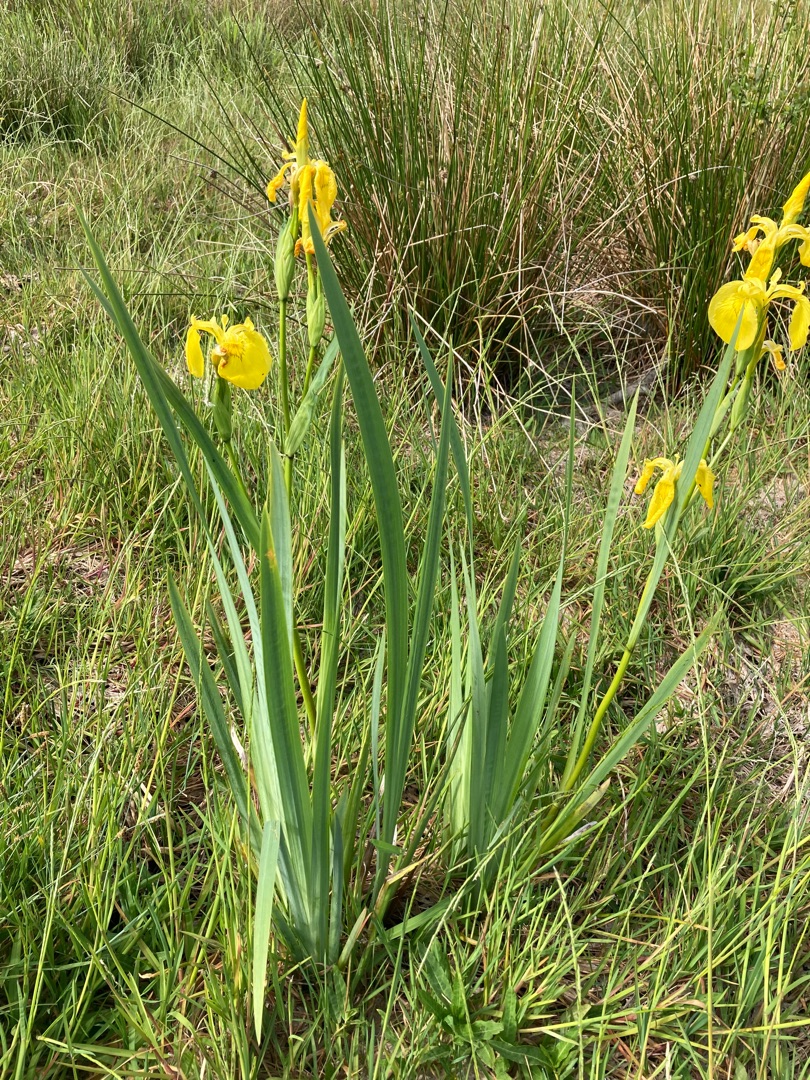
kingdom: Plantae
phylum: Tracheophyta
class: Liliopsida
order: Asparagales
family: Iridaceae
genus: Iris
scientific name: Iris pseudacorus
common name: Gul iris
